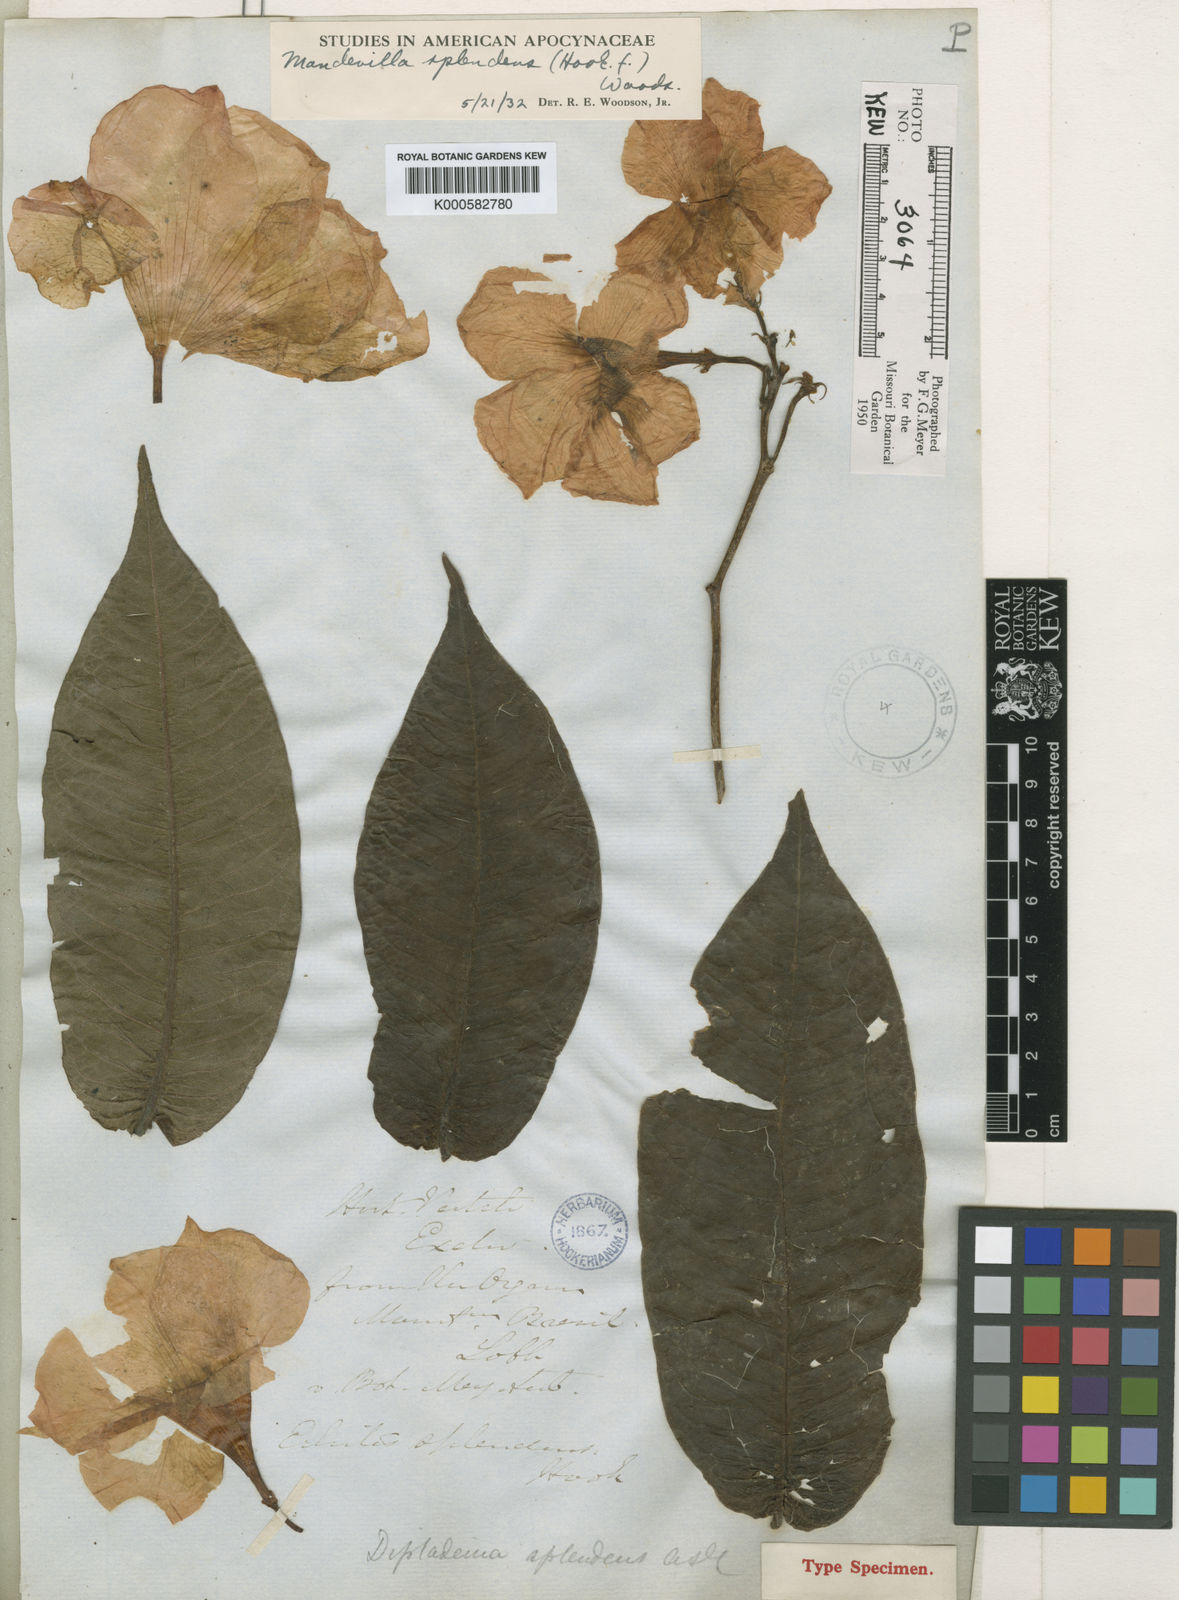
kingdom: Plantae
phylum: Tracheophyta
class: Magnoliopsida
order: Gentianales
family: Apocynaceae
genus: Mandevilla
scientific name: Mandevilla splendens
